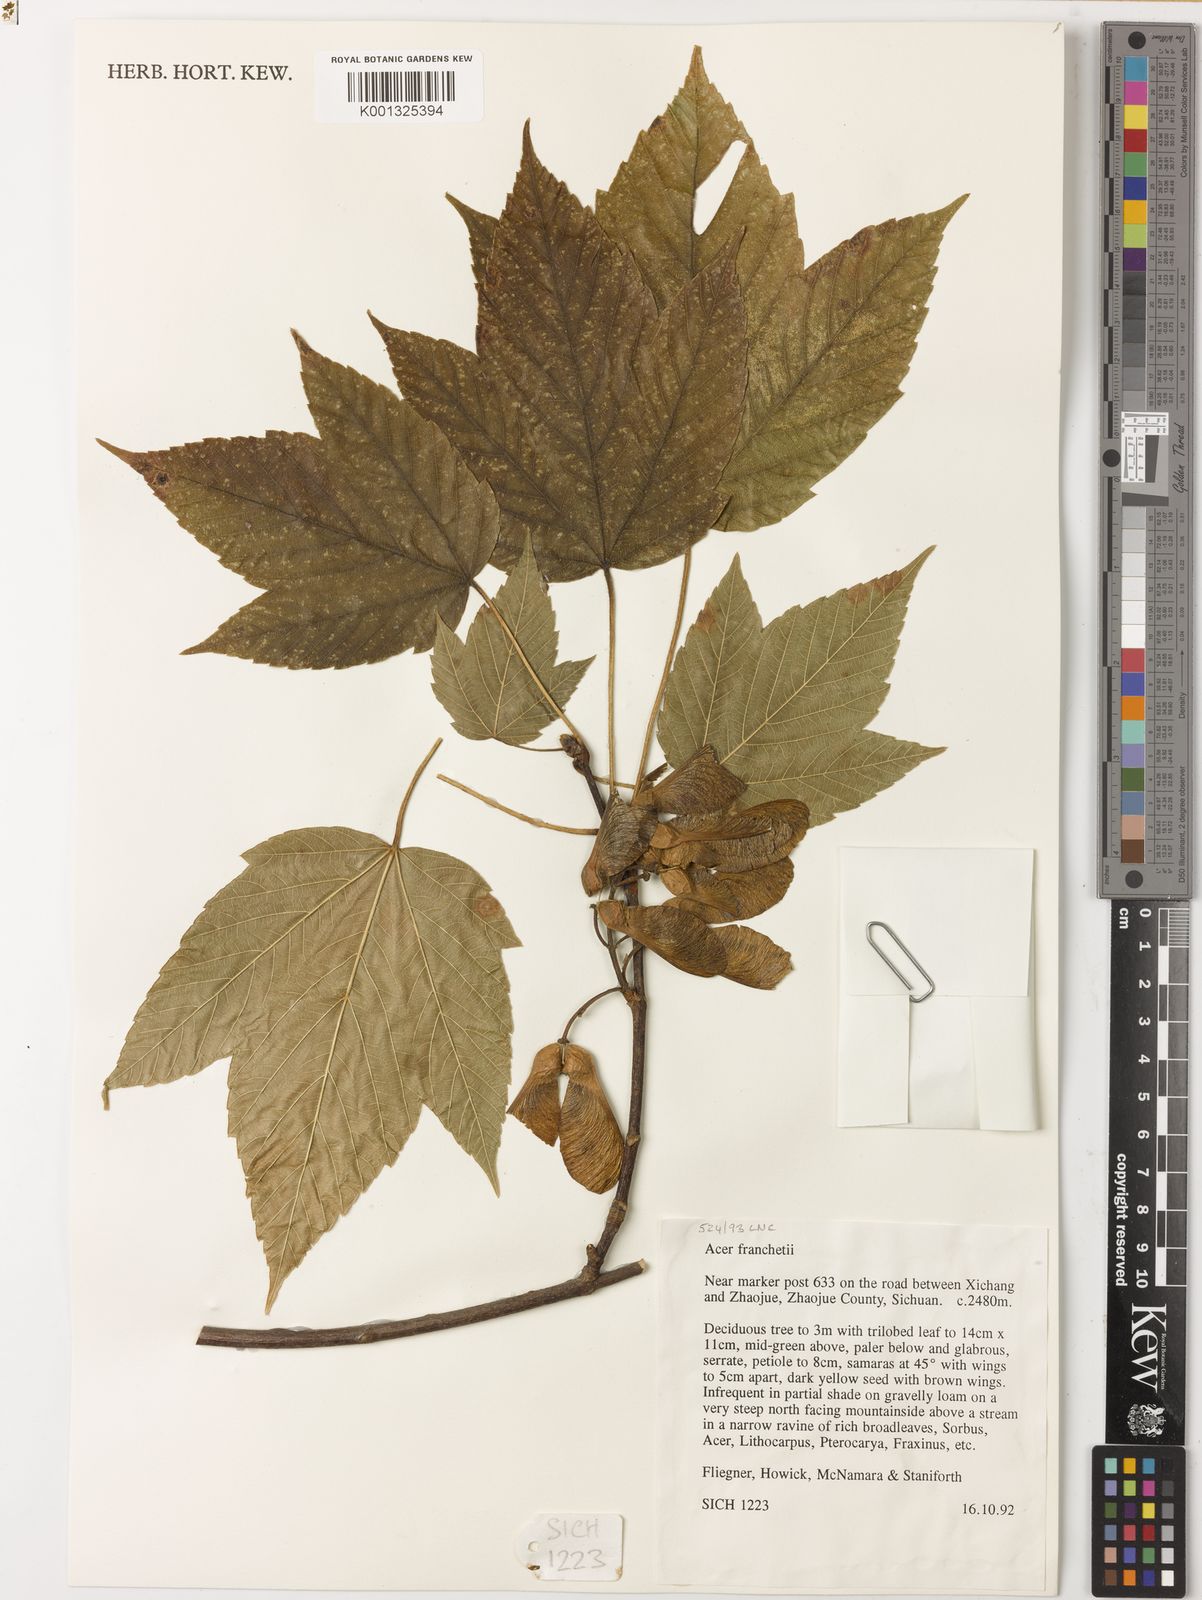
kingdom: Plantae
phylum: Tracheophyta
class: Magnoliopsida
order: Sapindales
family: Sapindaceae
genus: Acer
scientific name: Acer sterculiaceum
